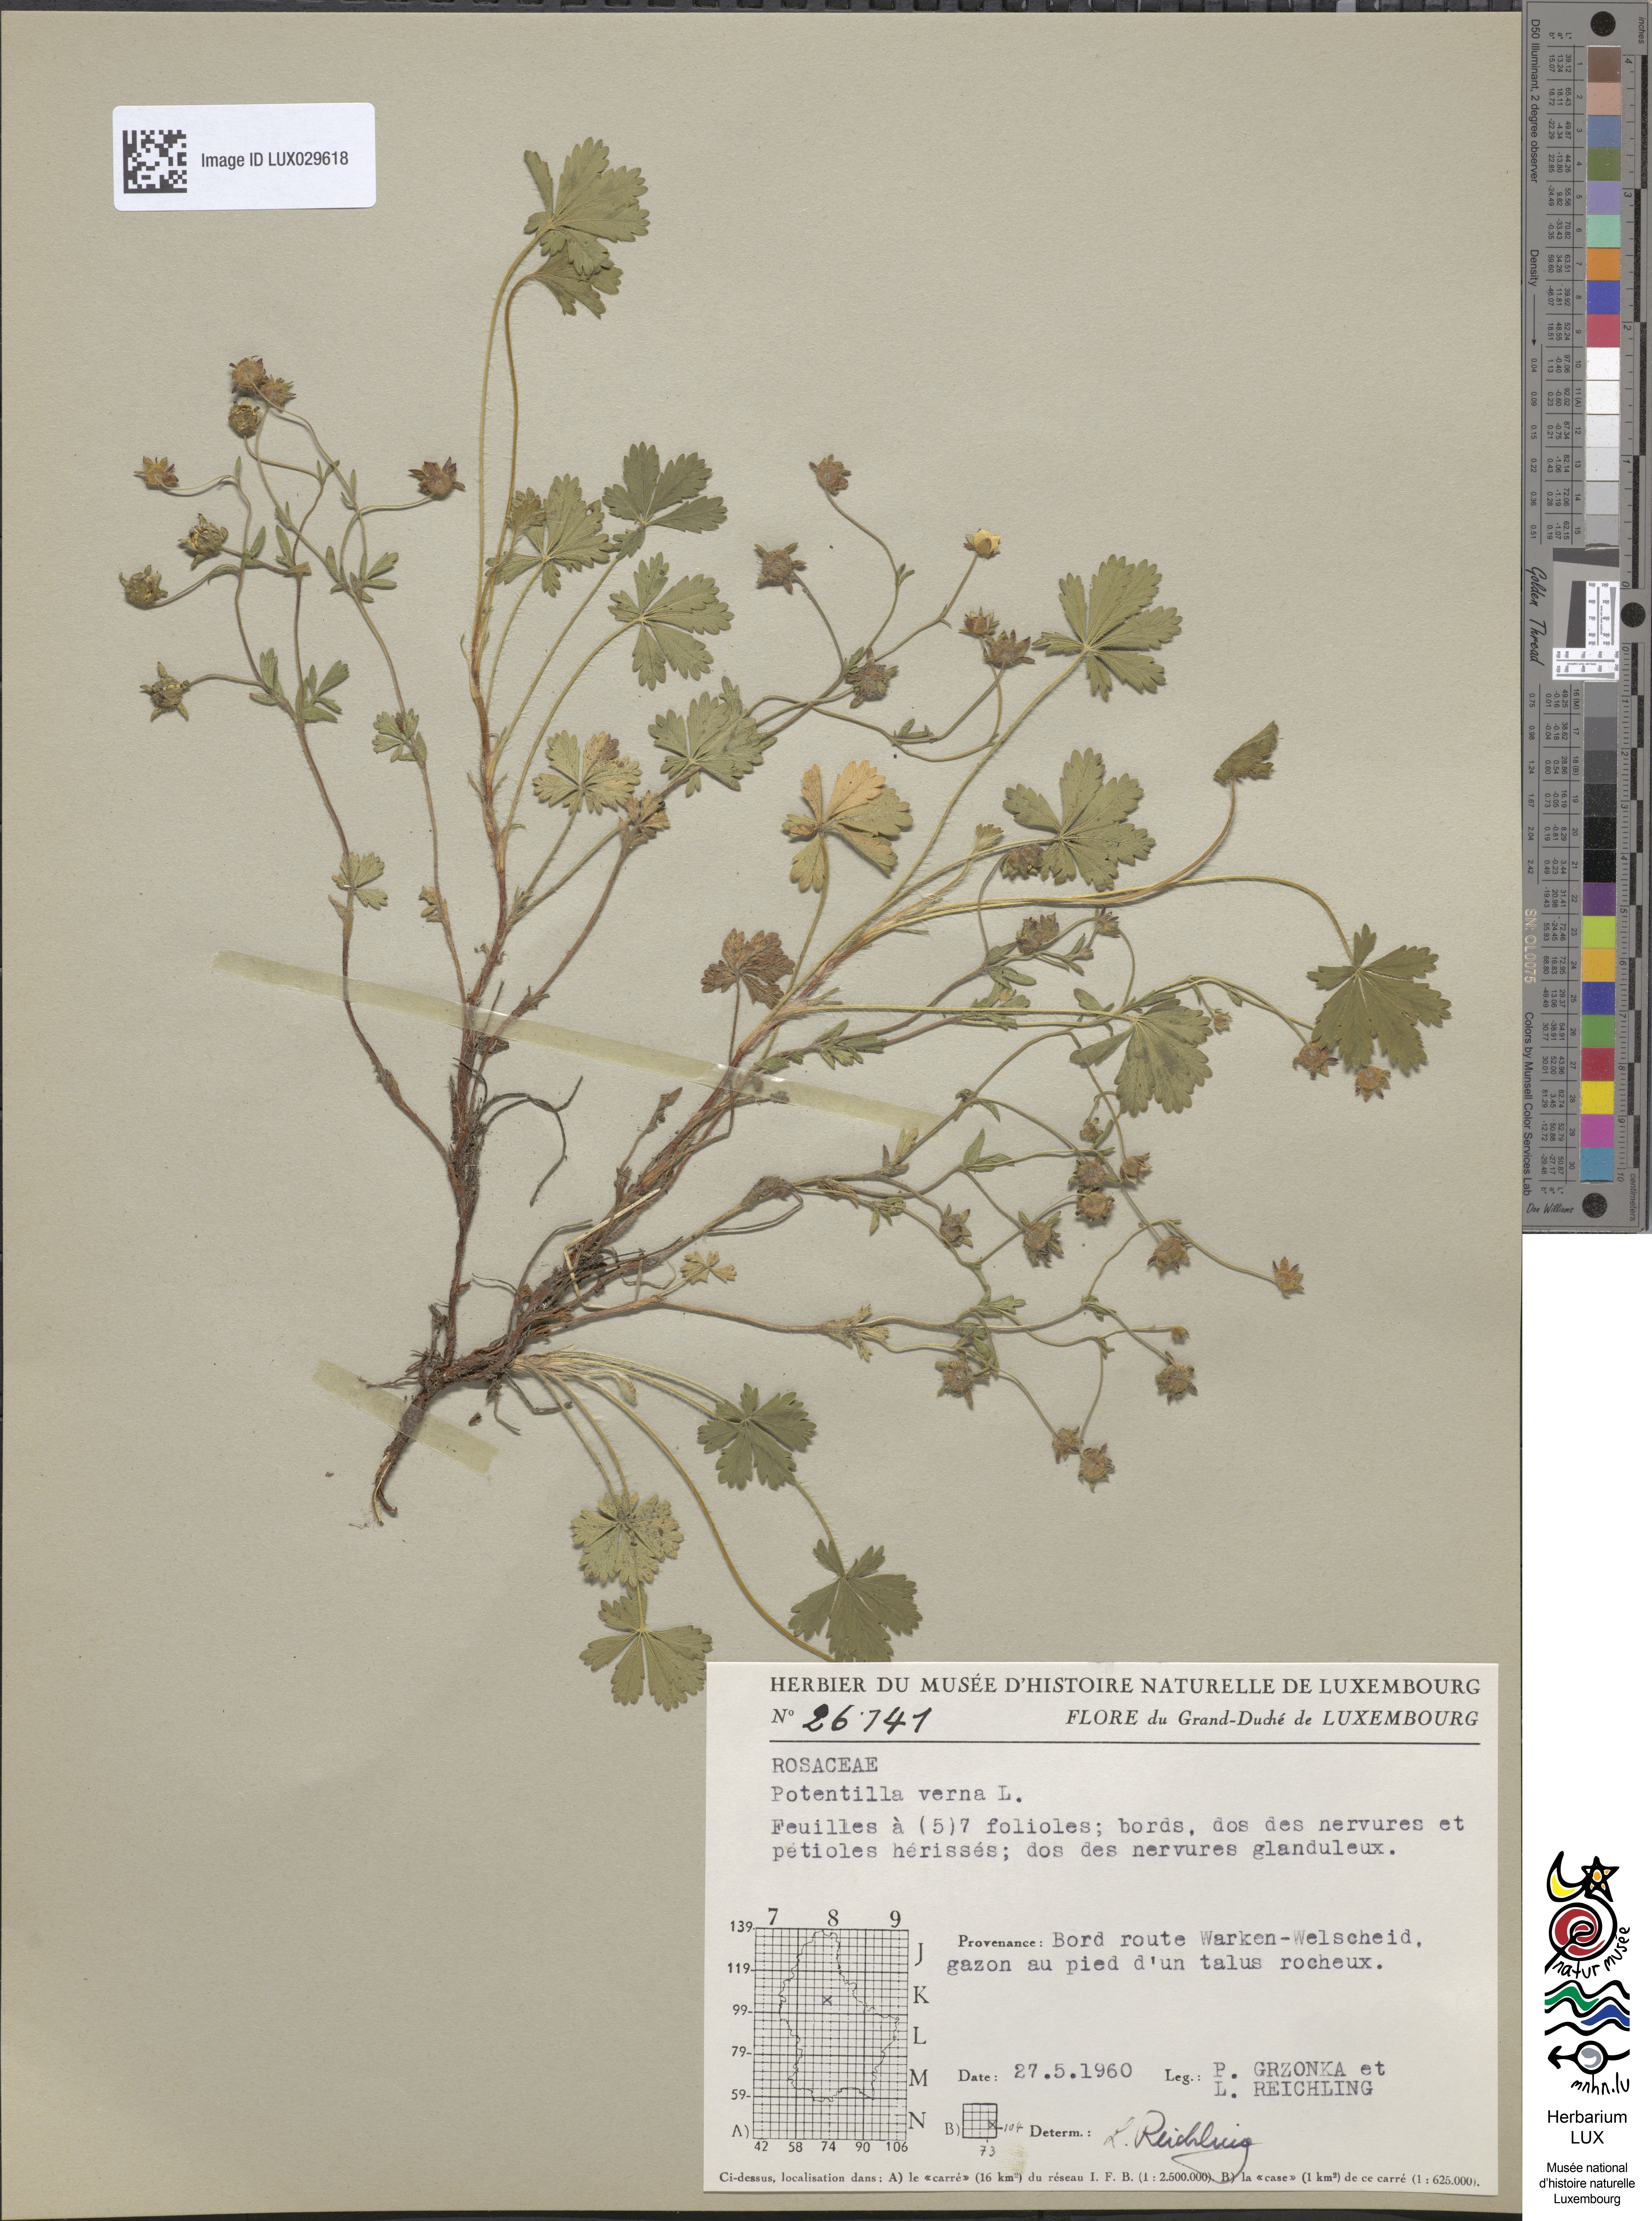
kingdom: Plantae
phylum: Tracheophyta
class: Magnoliopsida
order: Rosales
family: Rosaceae
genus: Potentilla
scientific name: Potentilla verna
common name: Spring cinquefoil
